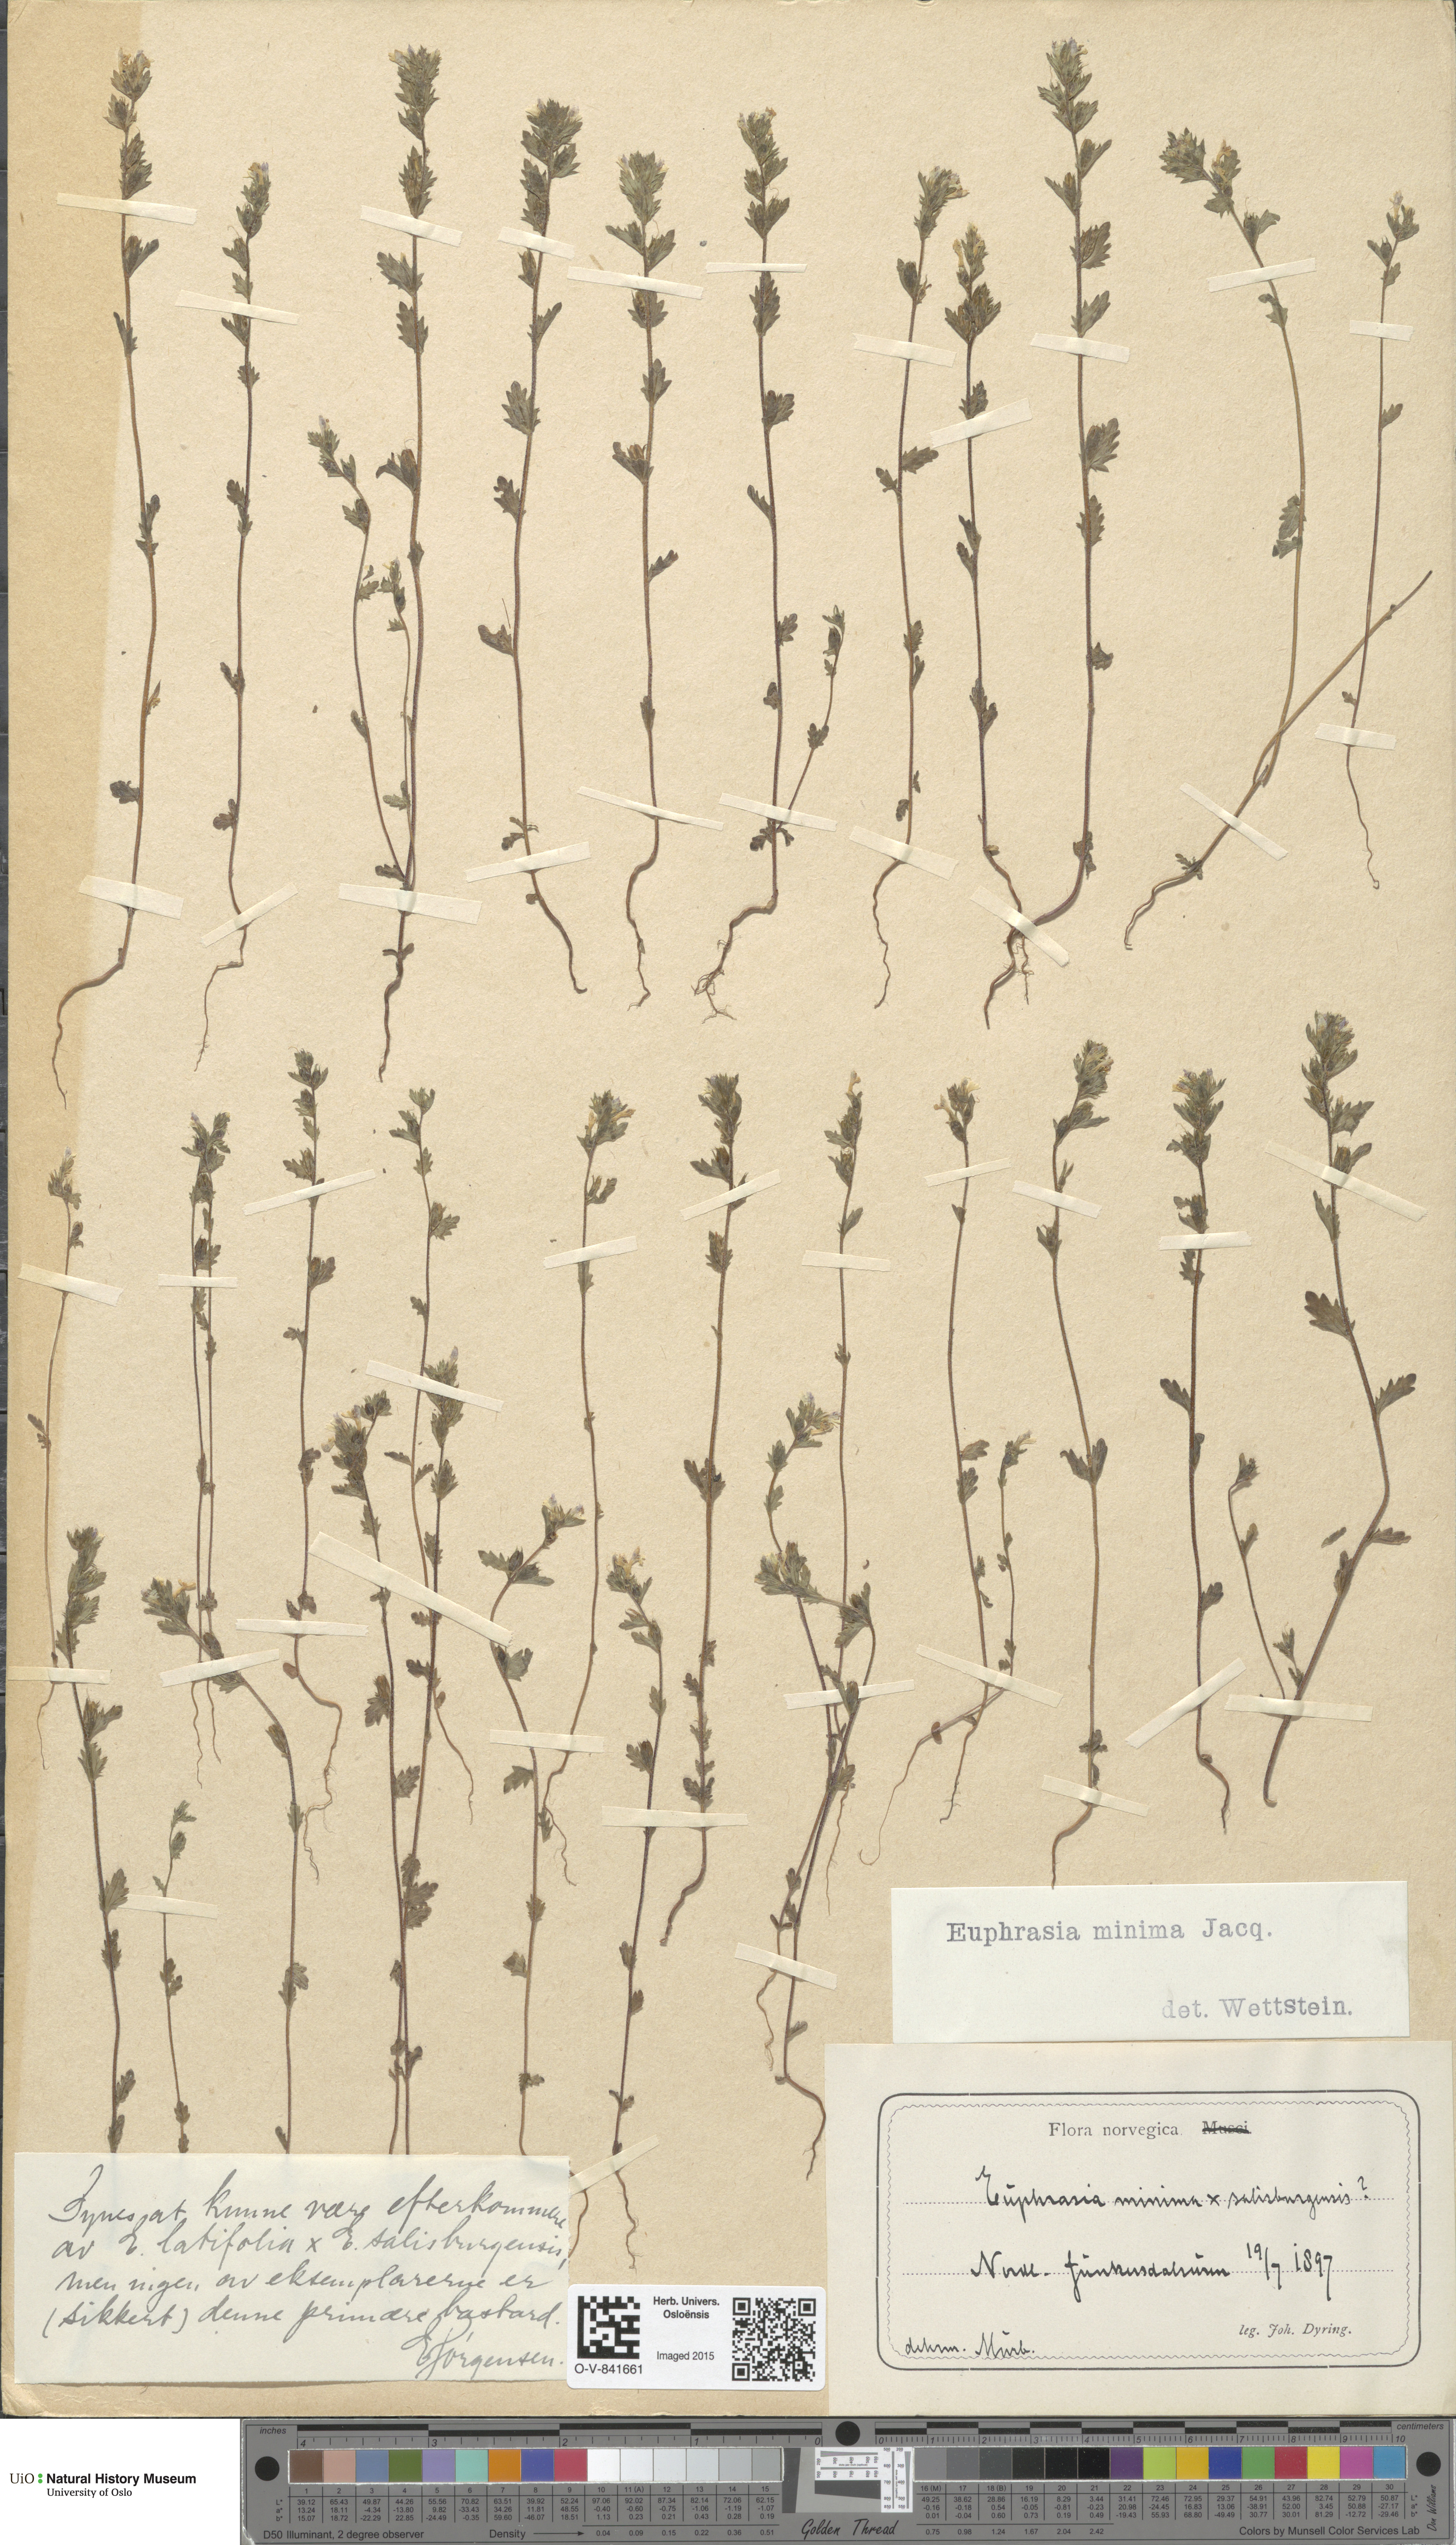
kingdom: Plantae
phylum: Tracheophyta
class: Magnoliopsida
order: Lamiales
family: Orobanchaceae
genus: Euphrasia
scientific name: Euphrasia wettsteinii
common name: Wettstein's eyebright
